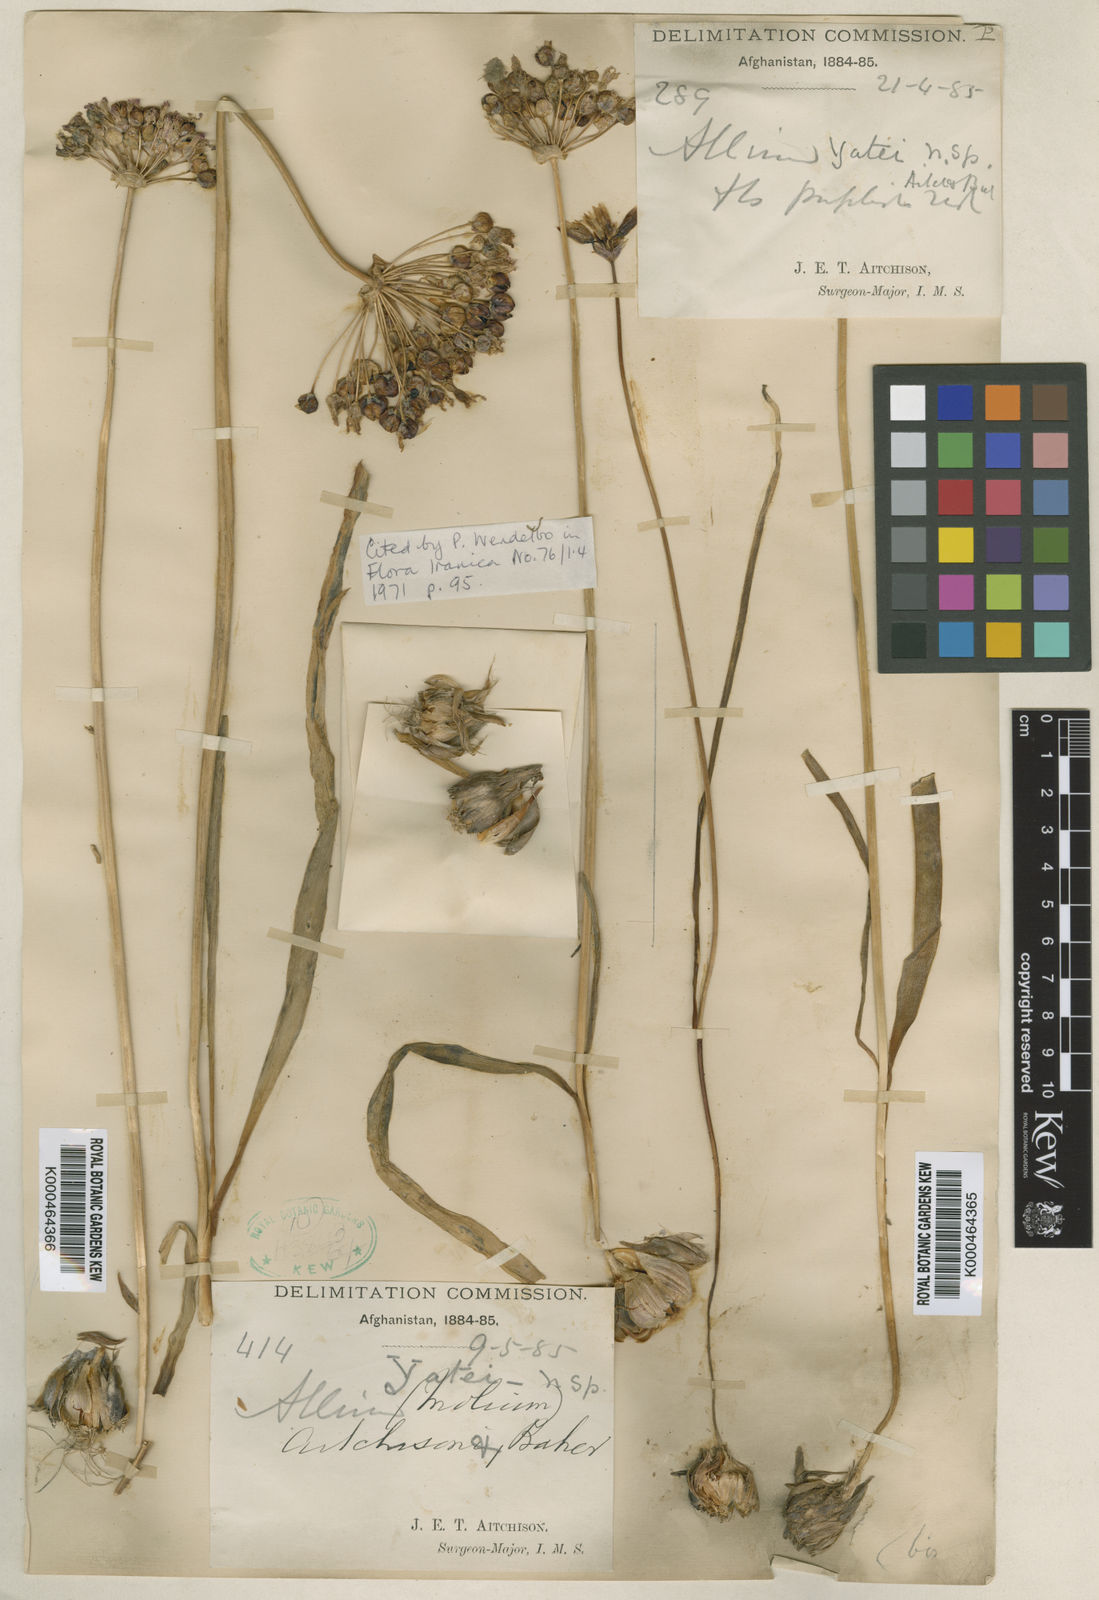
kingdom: Plantae
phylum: Tracheophyta
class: Liliopsida
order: Asparagales
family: Amaryllidaceae
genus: Allium
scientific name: Allium regelii
